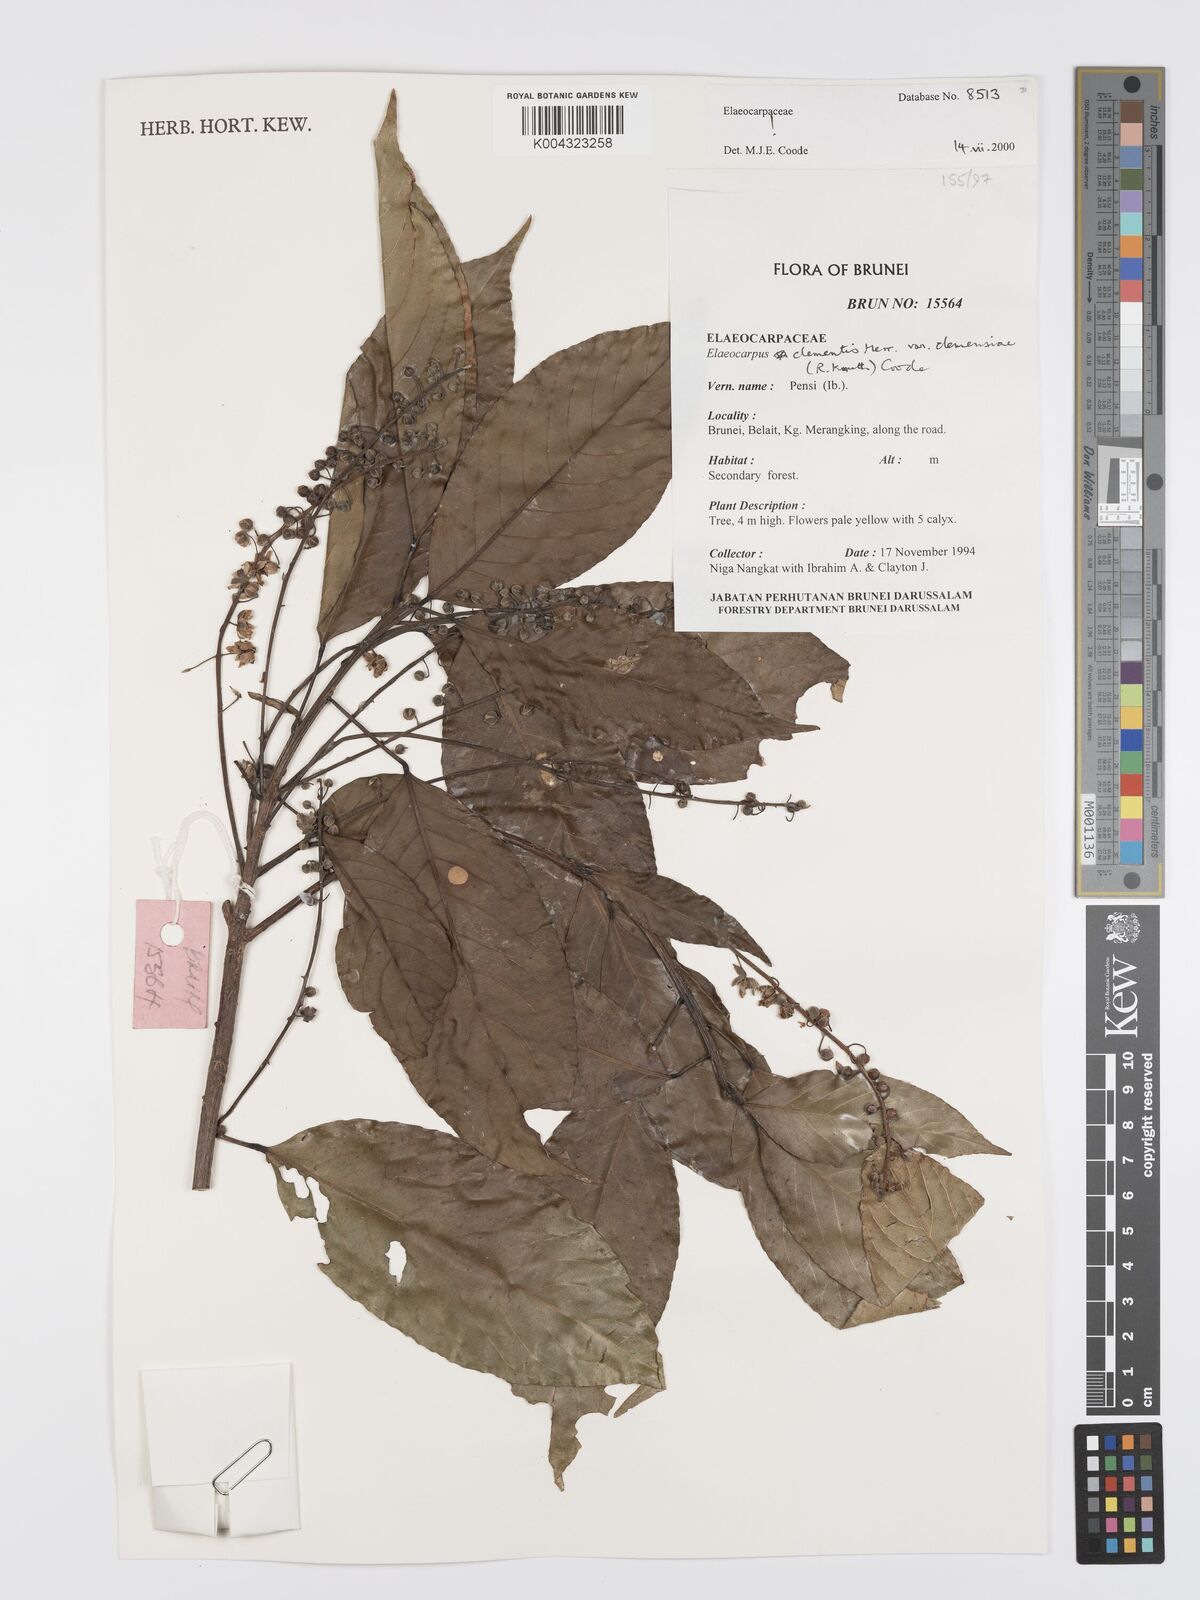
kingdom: Plantae
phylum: Tracheophyta
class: Magnoliopsida
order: Oxalidales
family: Elaeocarpaceae
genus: Elaeocarpus
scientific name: Elaeocarpus clementis
